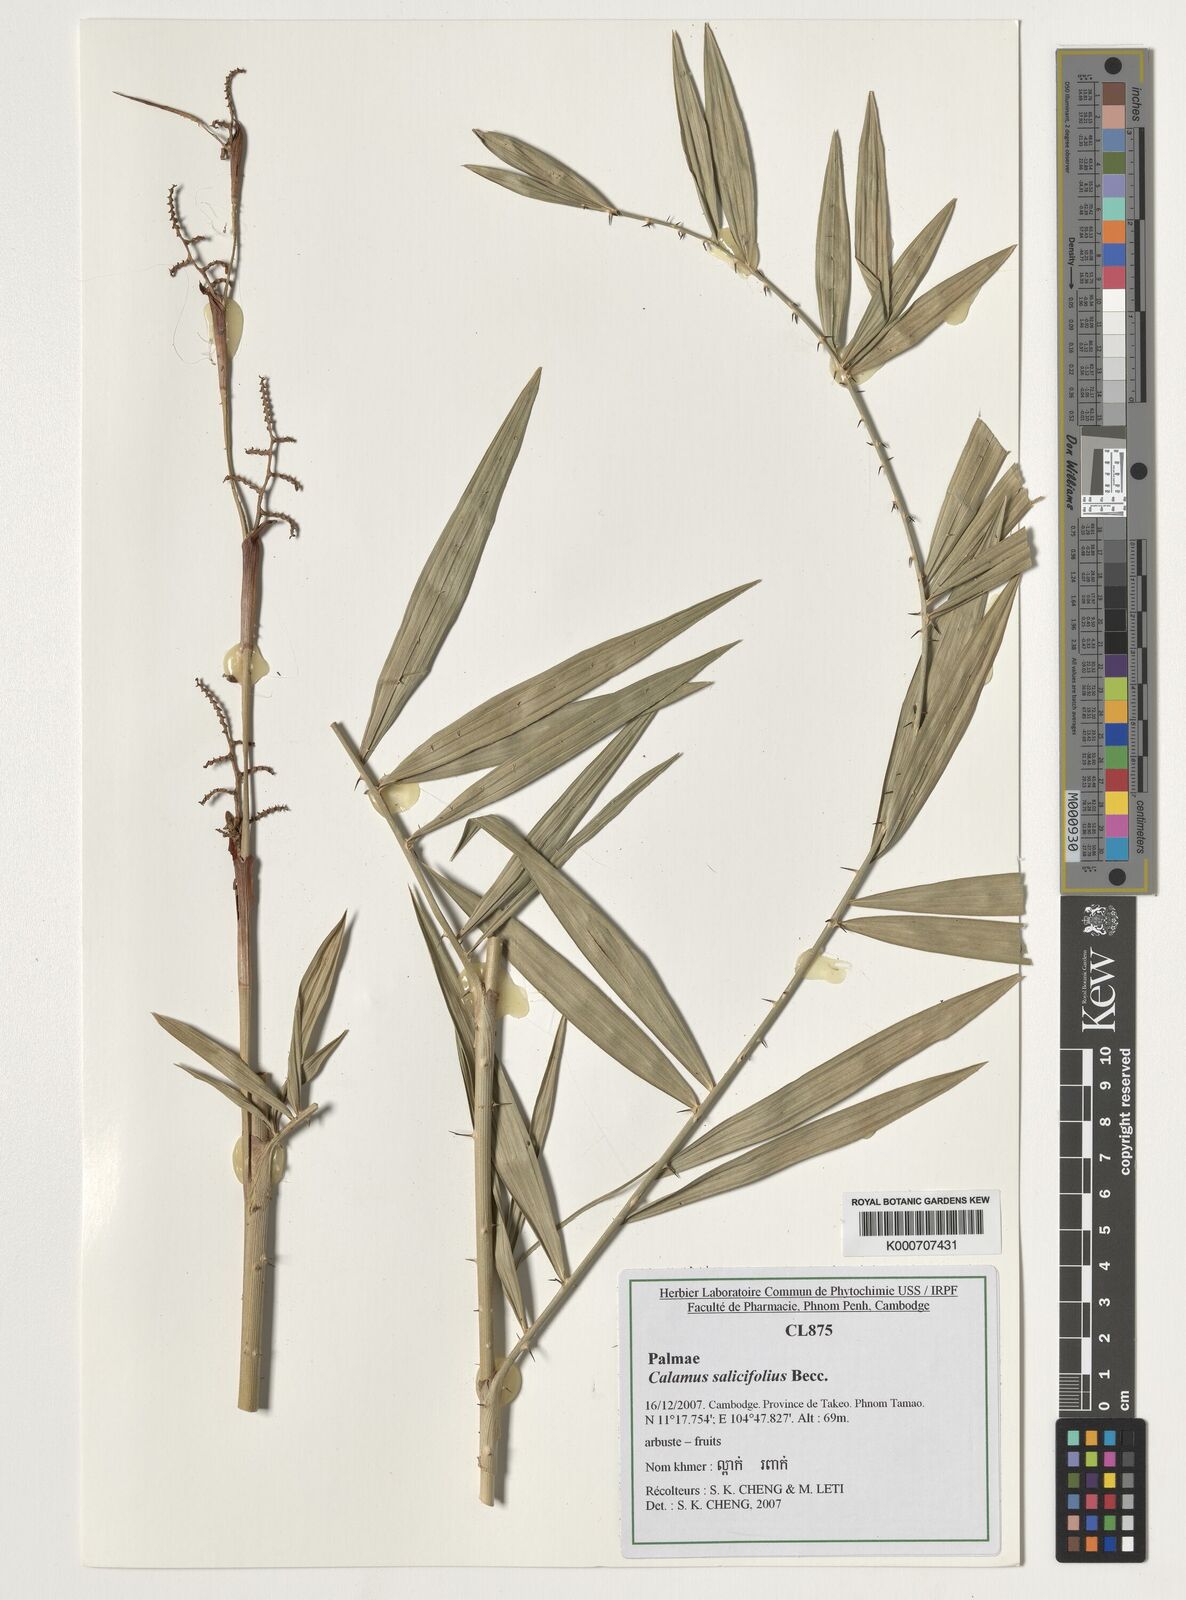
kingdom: Plantae
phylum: Tracheophyta
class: Liliopsida
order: Arecales
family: Arecaceae
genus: Calamus
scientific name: Calamus salicifolius
